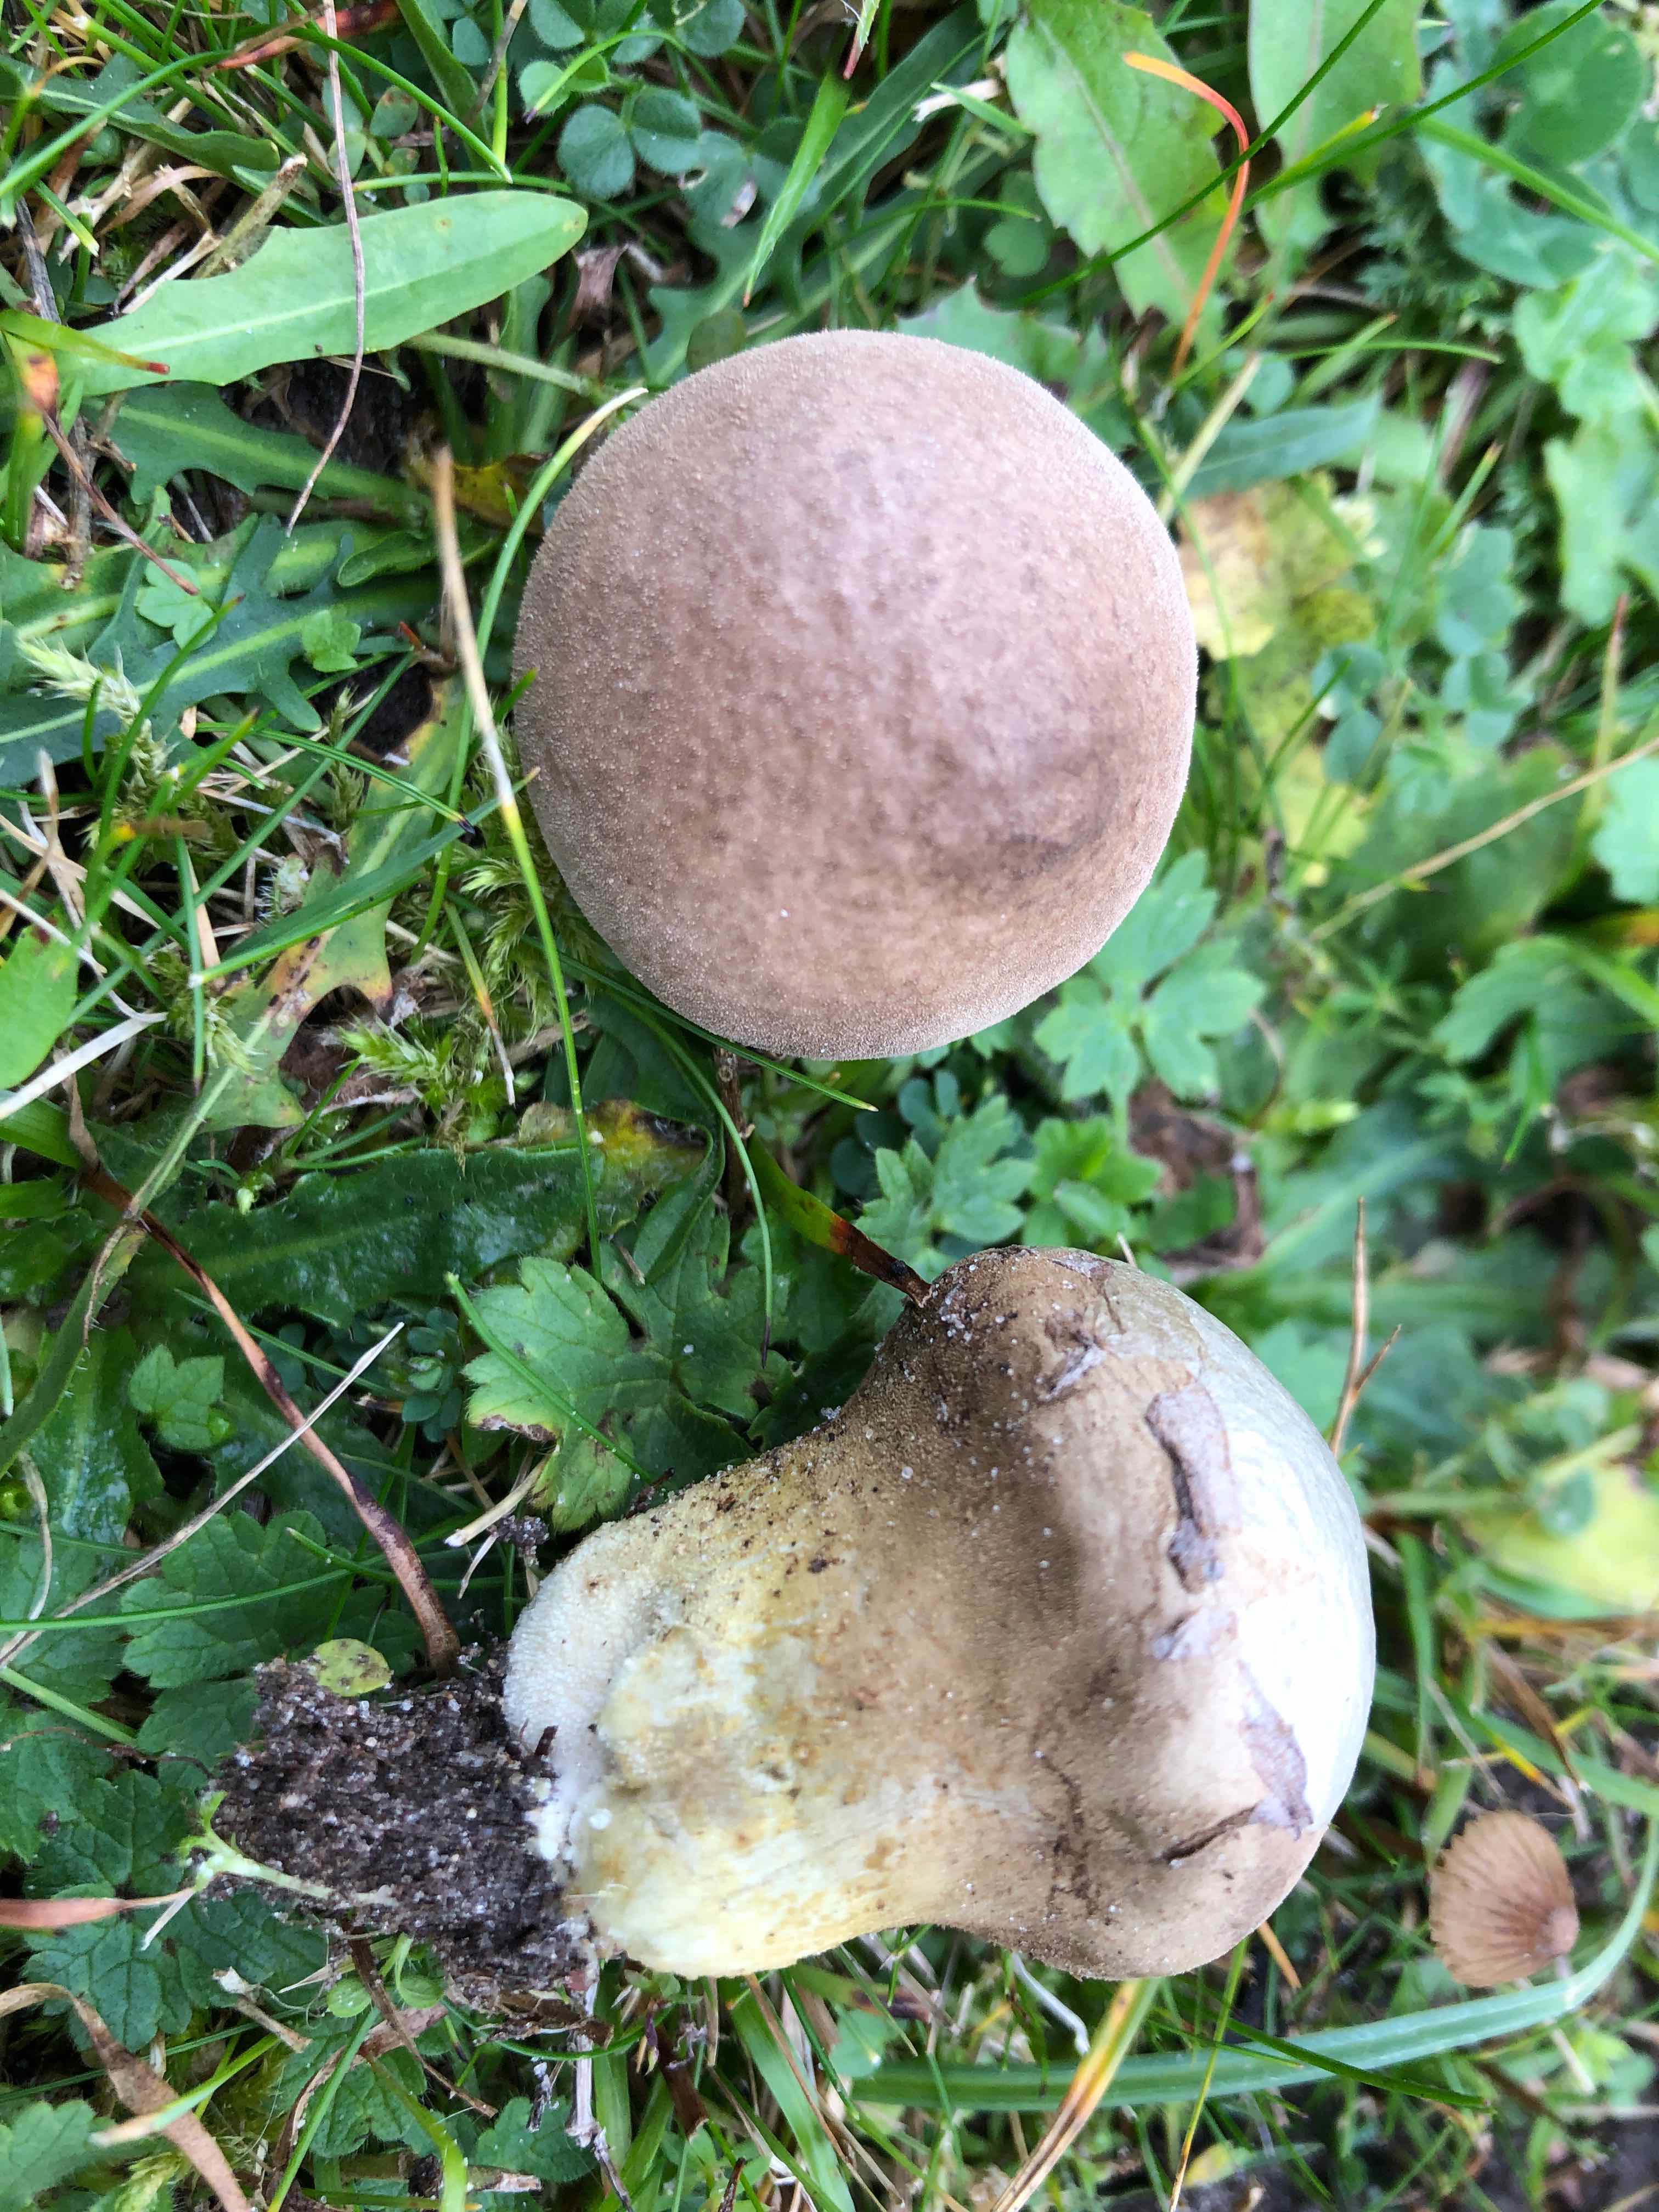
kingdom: Fungi
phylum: Basidiomycota
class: Agaricomycetes
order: Agaricales
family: Lycoperdaceae
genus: Lycoperdon
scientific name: Lycoperdon lividum
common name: mark-støvbold
